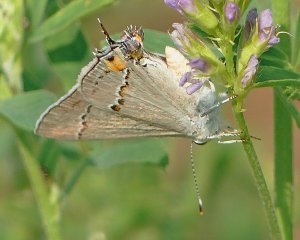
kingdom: Animalia
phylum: Arthropoda
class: Insecta
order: Lepidoptera
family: Lycaenidae
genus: Strymon
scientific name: Strymon melinus
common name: Gray Hairstreak
